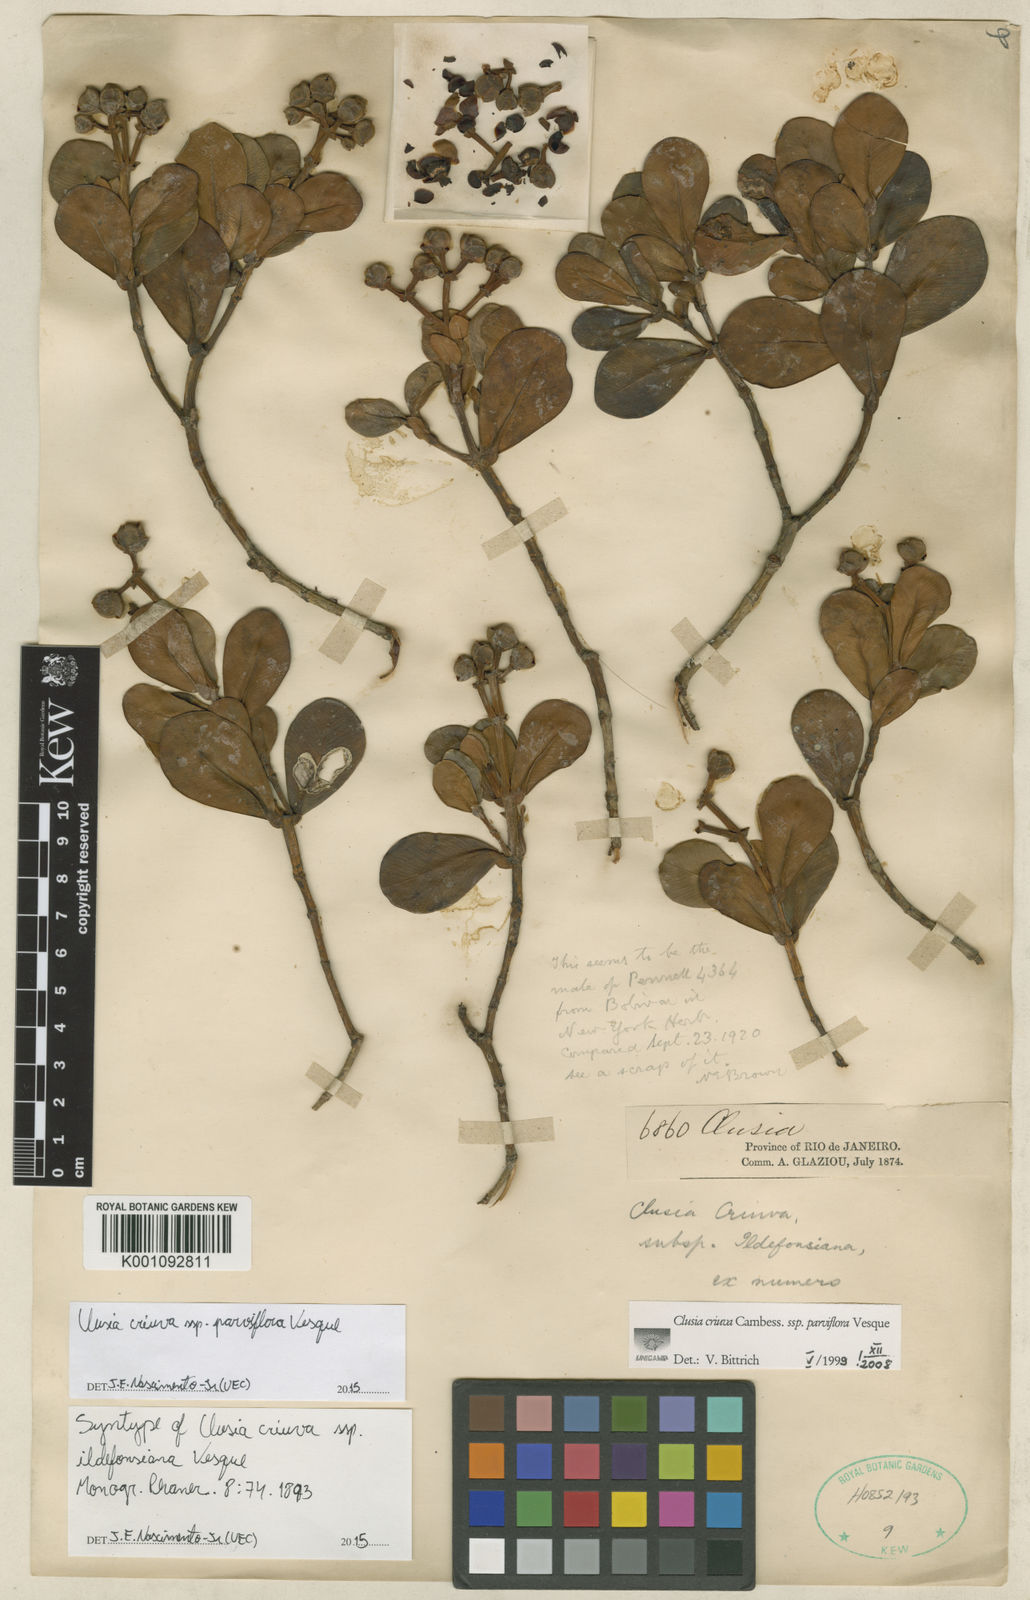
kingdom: Plantae
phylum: Tracheophyta
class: Magnoliopsida
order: Malpighiales
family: Clusiaceae
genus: Clusia
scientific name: Clusia criuva
